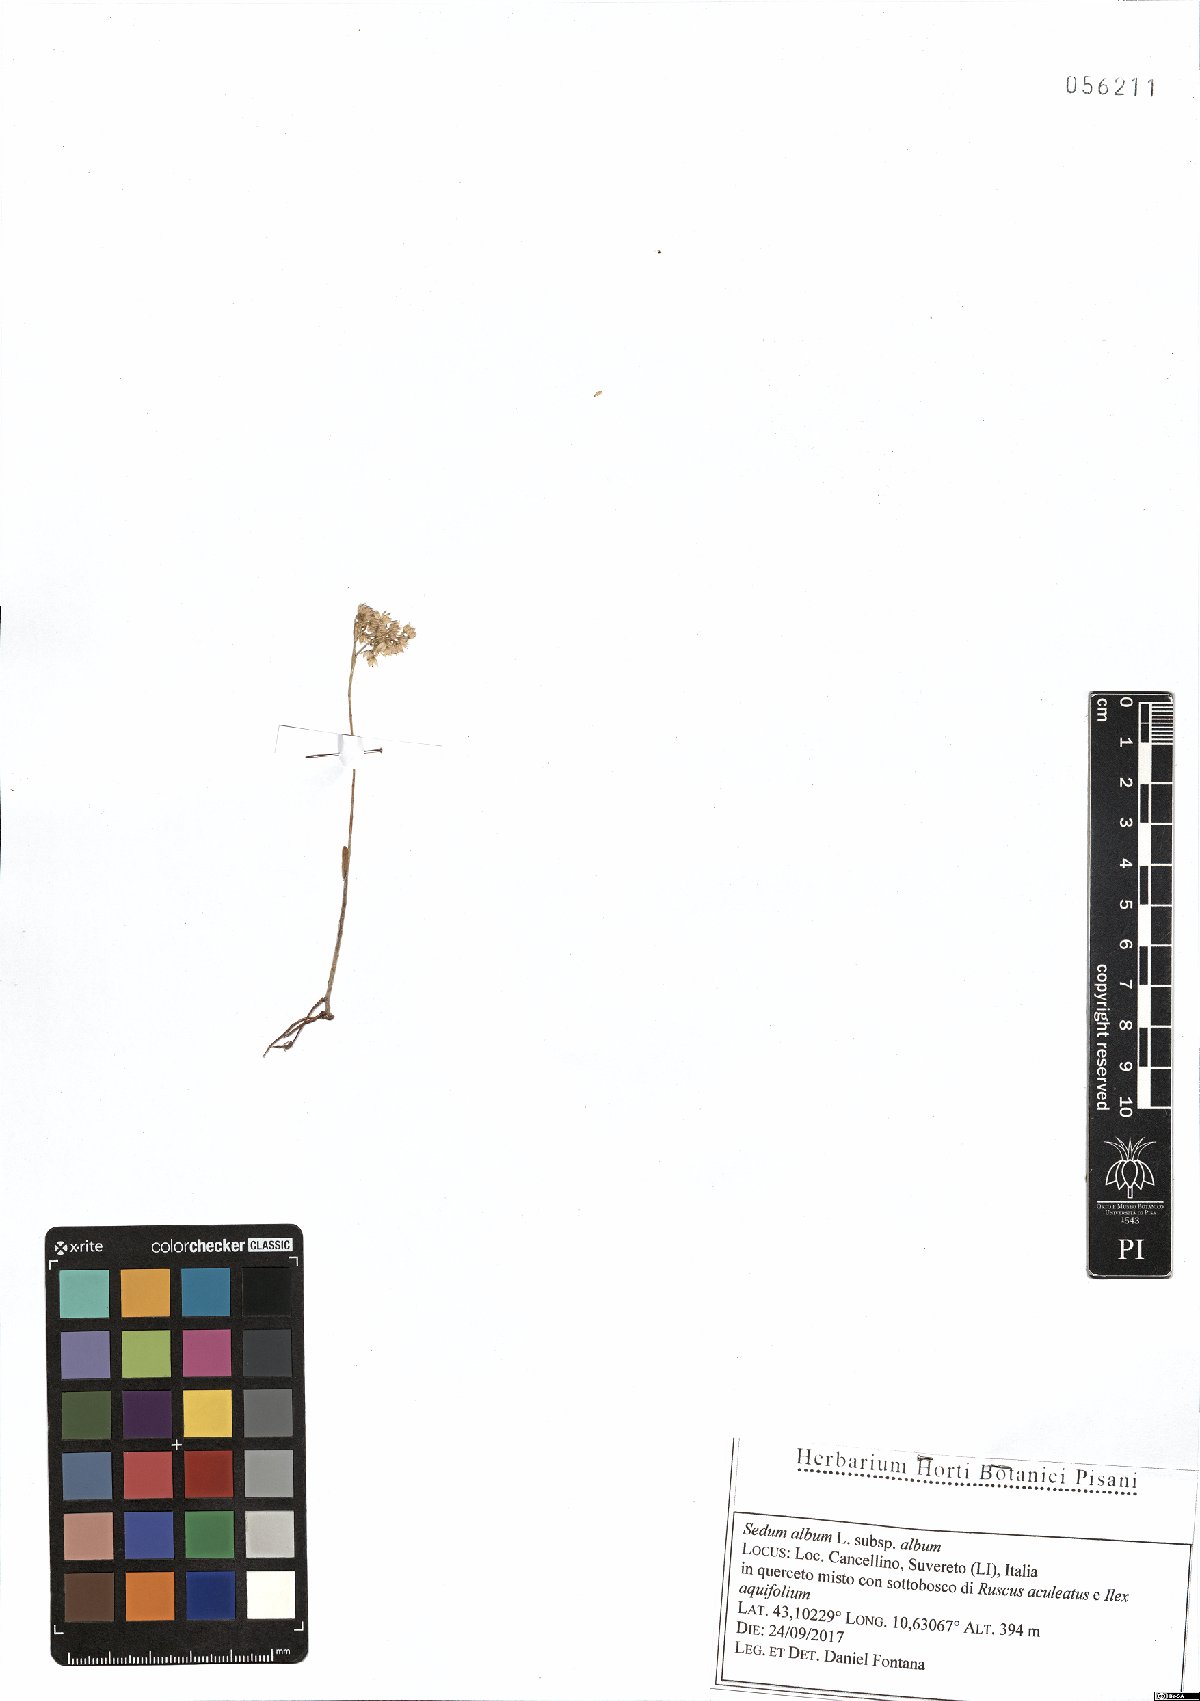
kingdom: Plantae
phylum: Tracheophyta
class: Magnoliopsida
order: Saxifragales
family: Crassulaceae
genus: Sedum
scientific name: Sedum album
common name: White stonecrop
